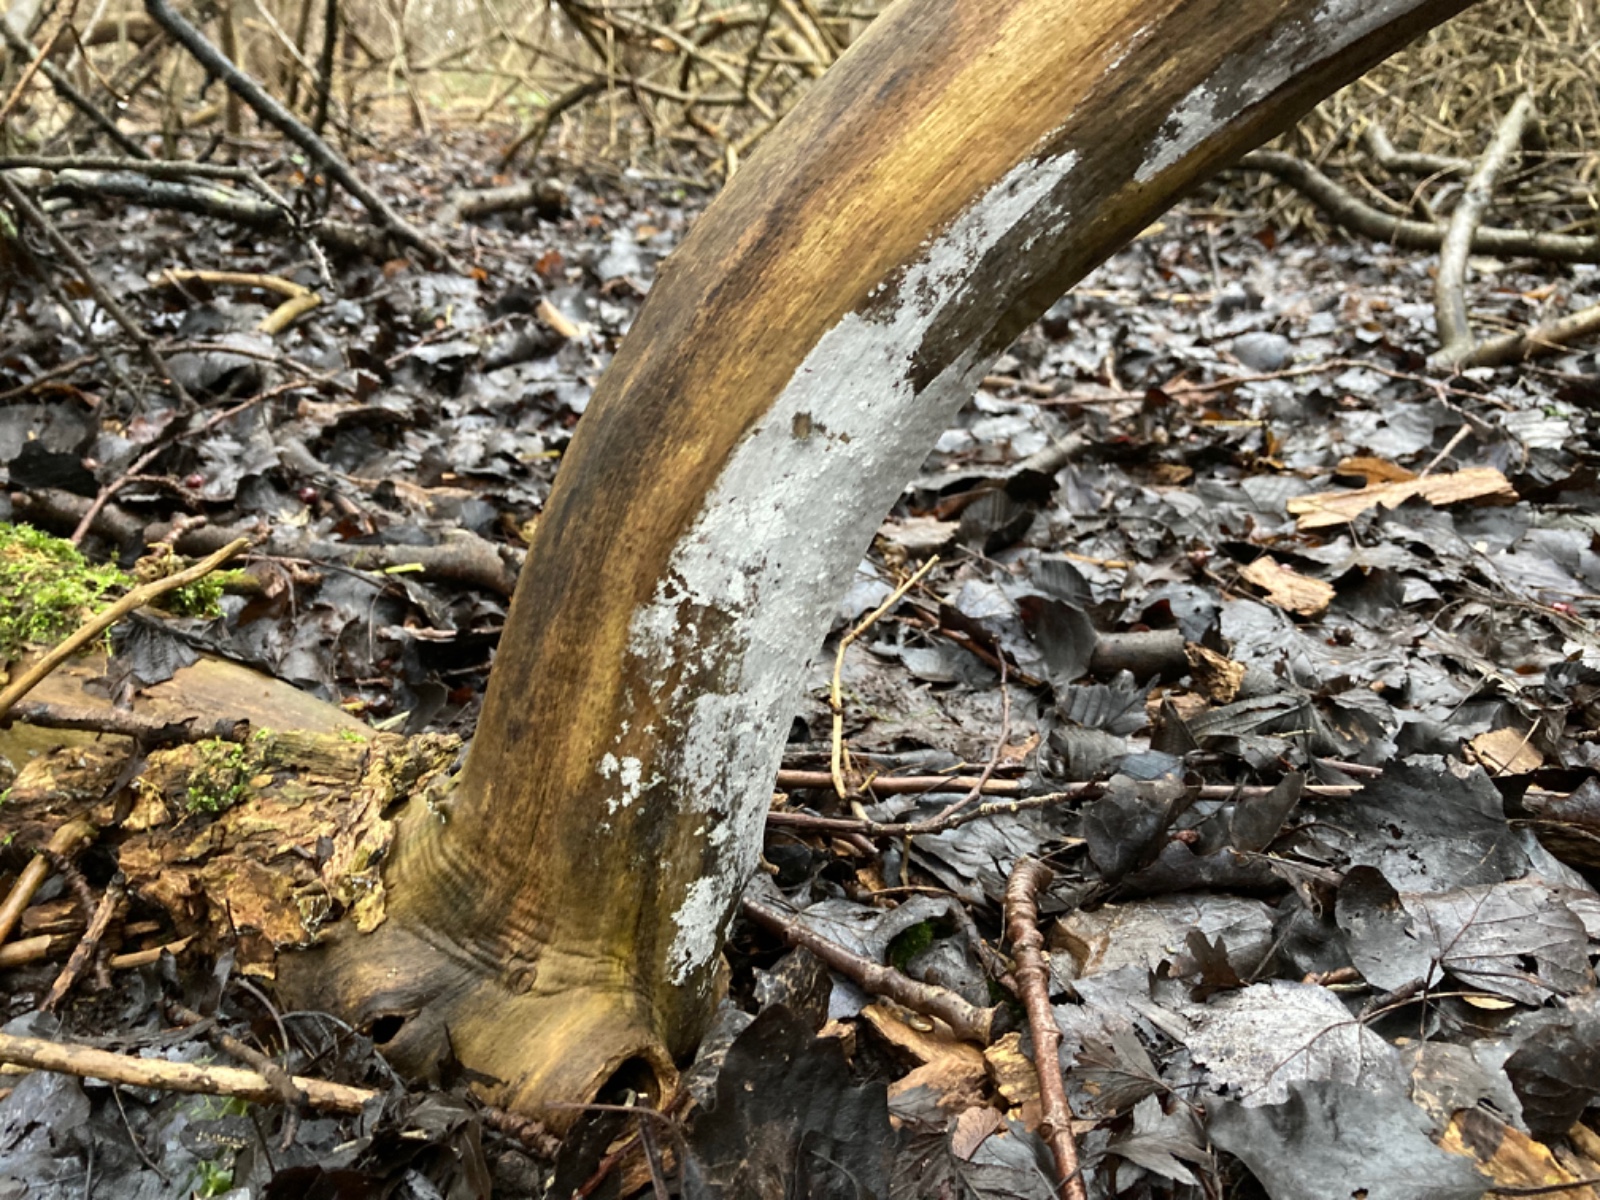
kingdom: Fungi
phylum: Basidiomycota
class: Agaricomycetes
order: Corticiales
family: Corticiaceae
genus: Lyomyces
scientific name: Lyomyces sambuci
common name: almindelig hyldehinde
